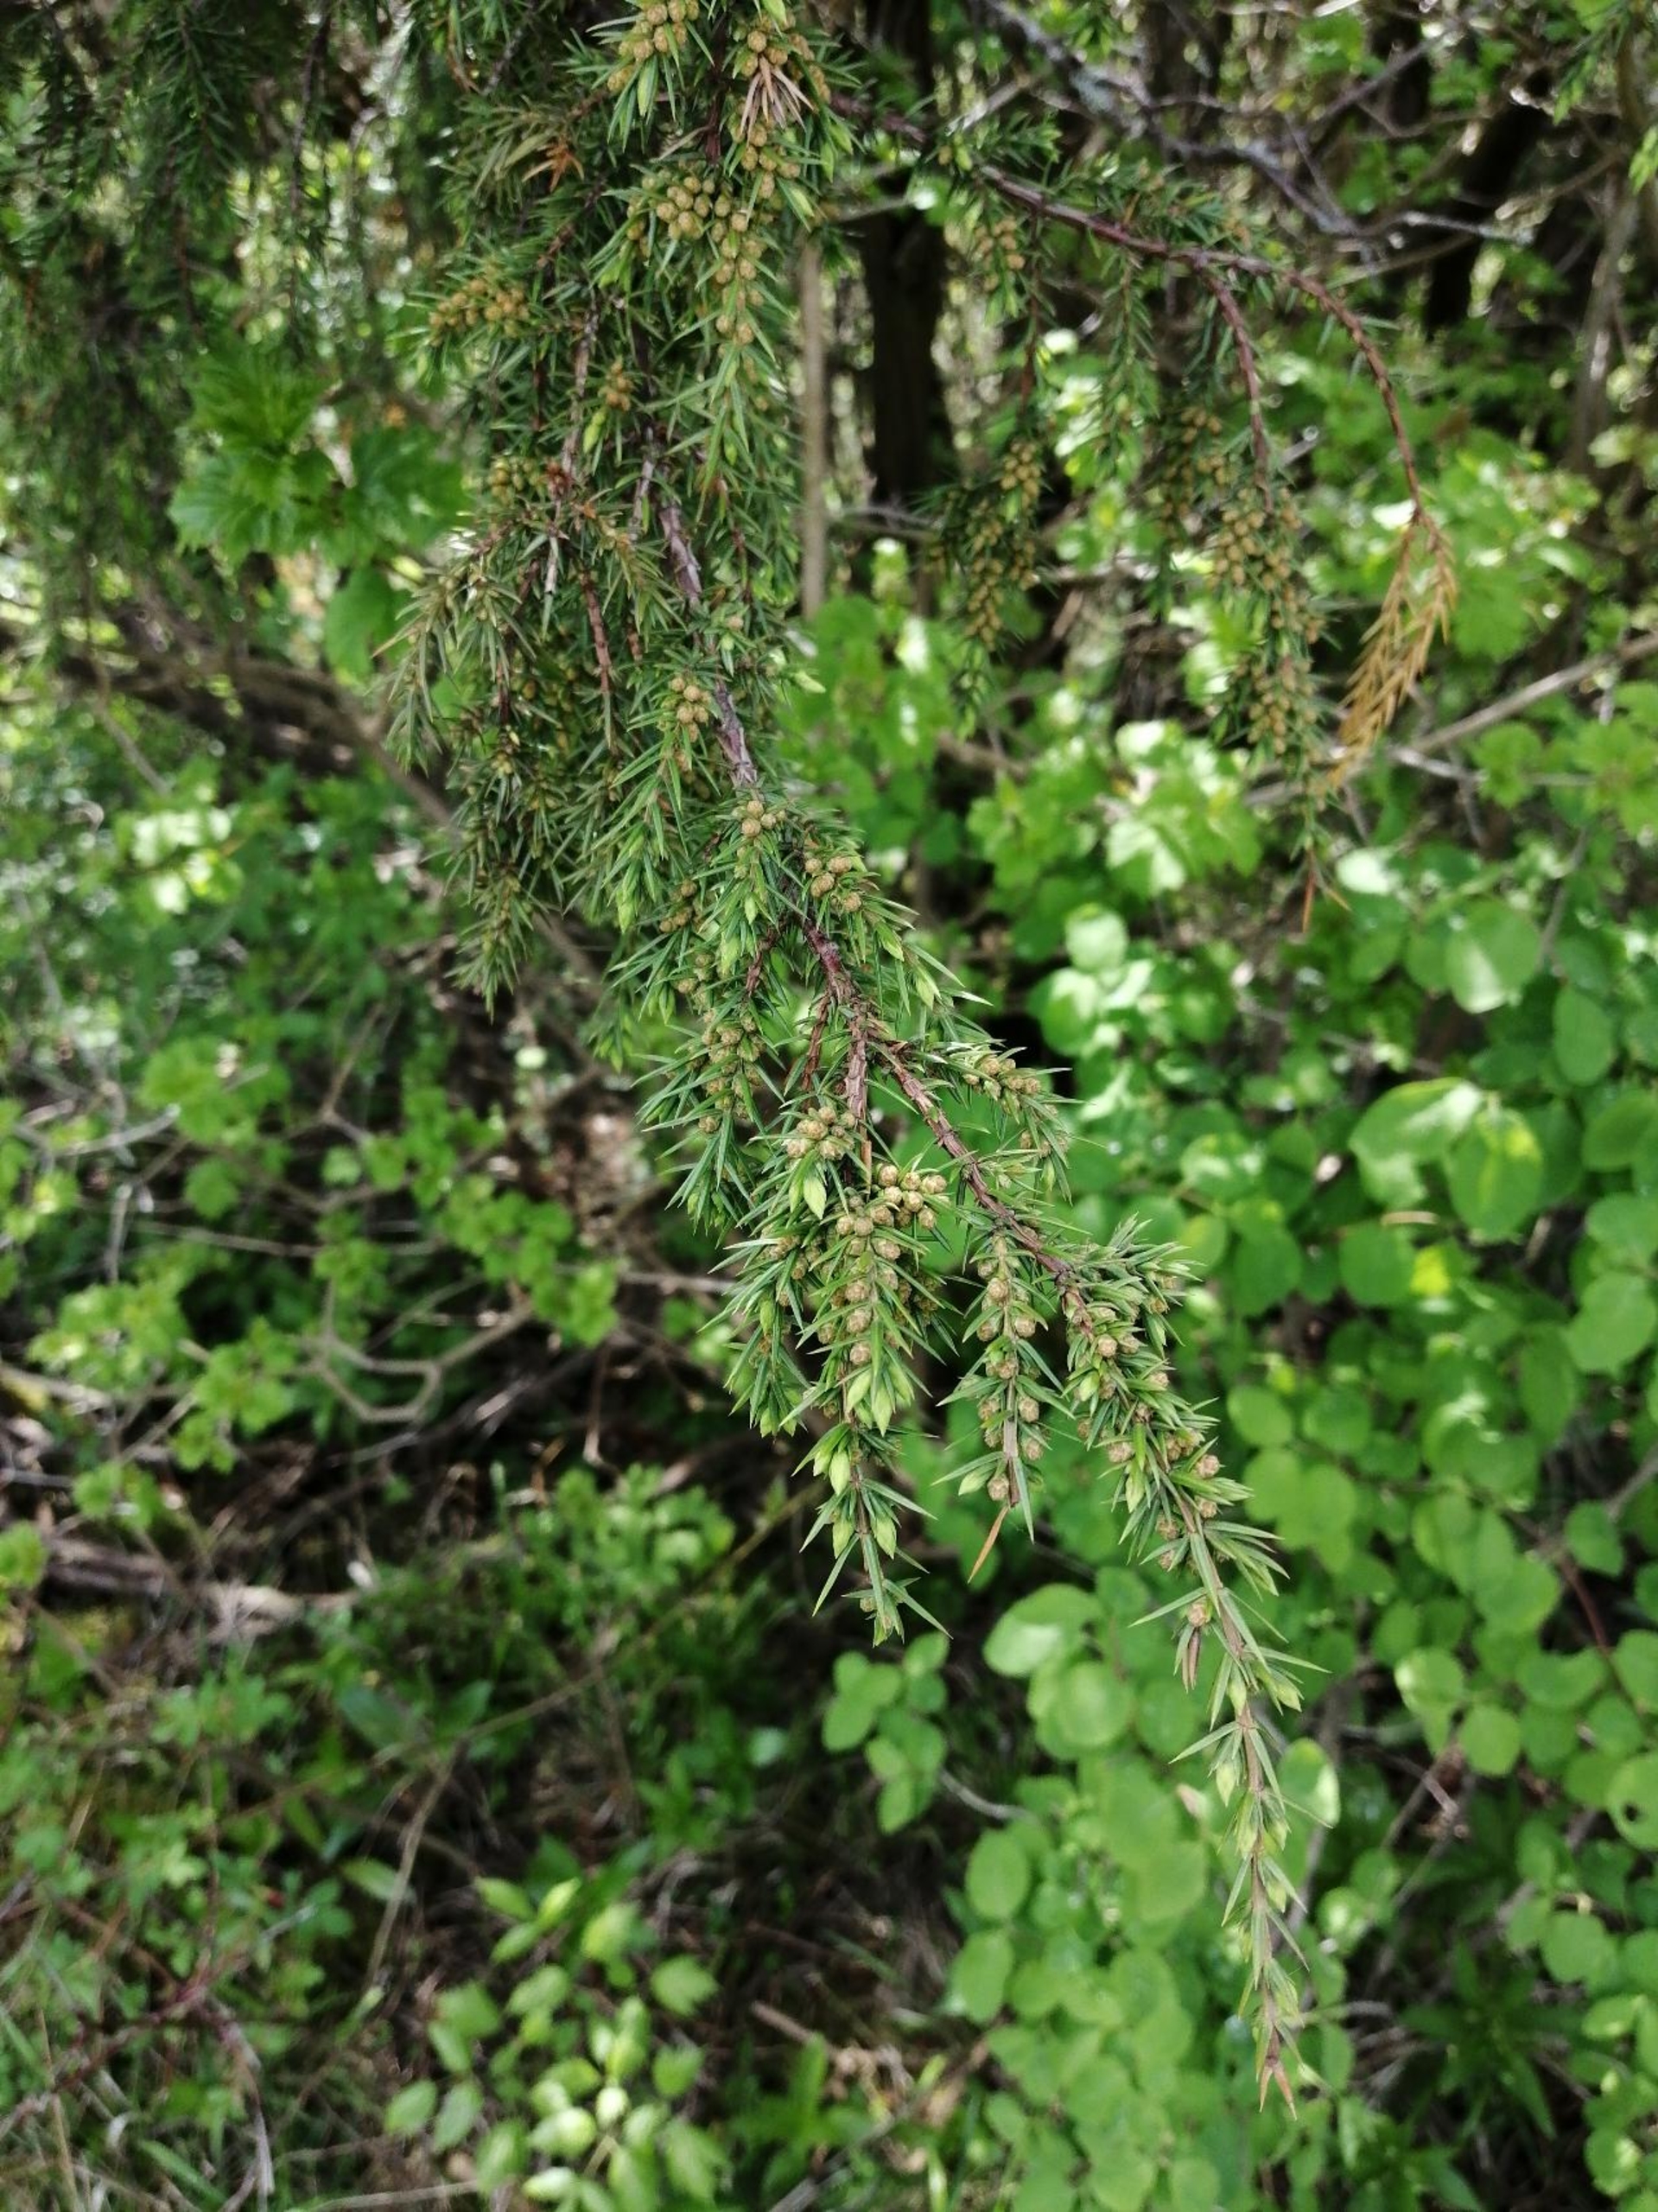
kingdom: Plantae
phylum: Tracheophyta
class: Pinopsida
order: Pinales
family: Cupressaceae
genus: Juniperus
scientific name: Juniperus communis
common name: Almindelig ene
